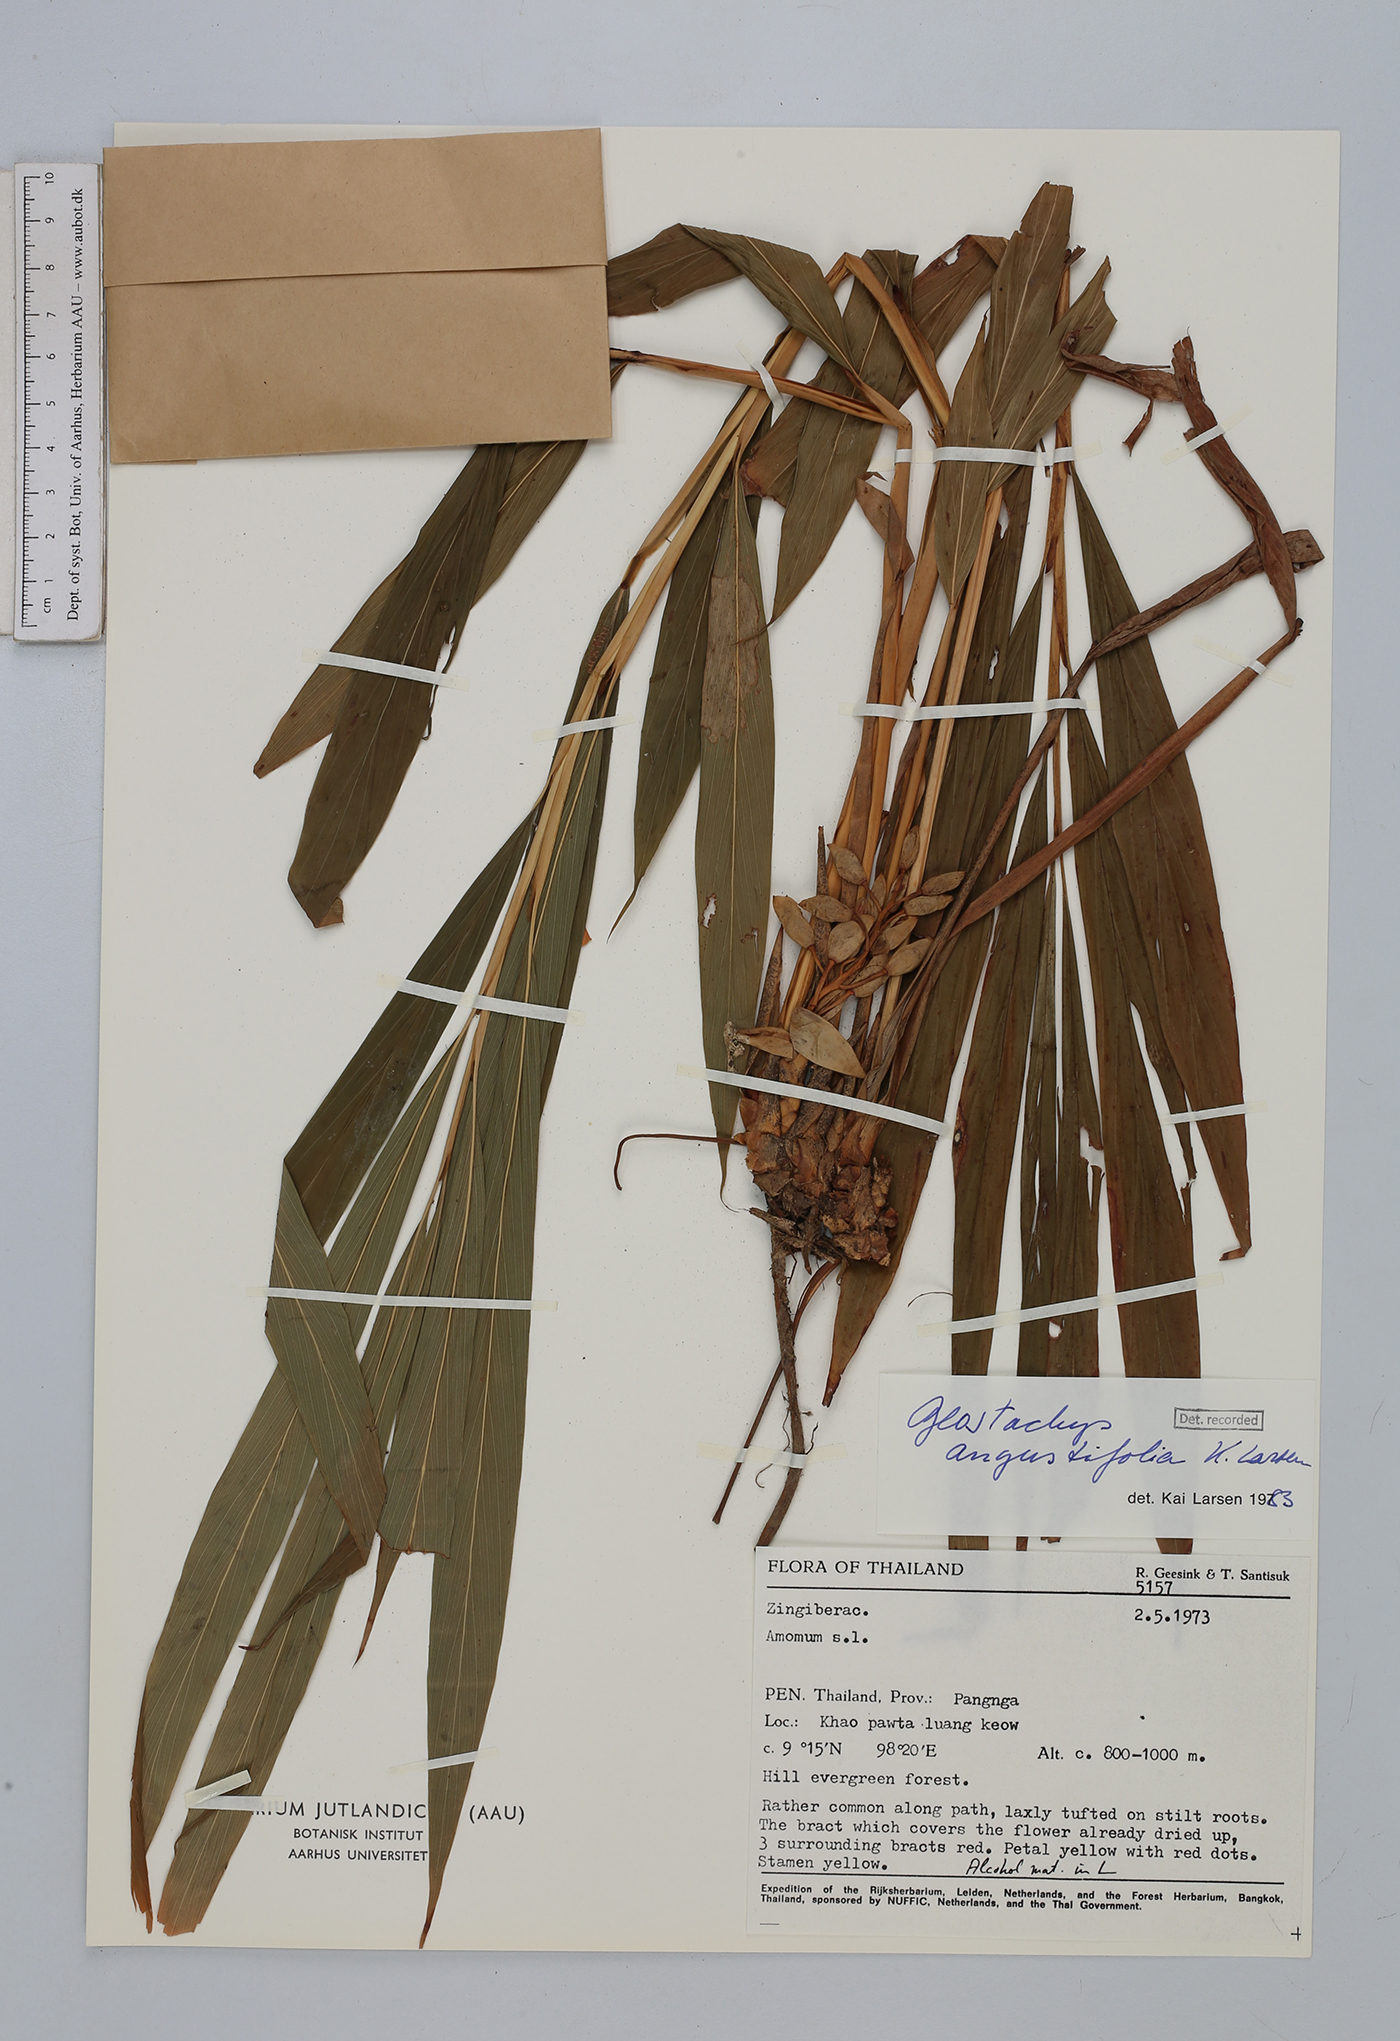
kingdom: Plantae
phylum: Tracheophyta
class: Liliopsida
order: Zingiberales
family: Zingiberaceae
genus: Geostachys
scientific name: Geostachys angustifolia
